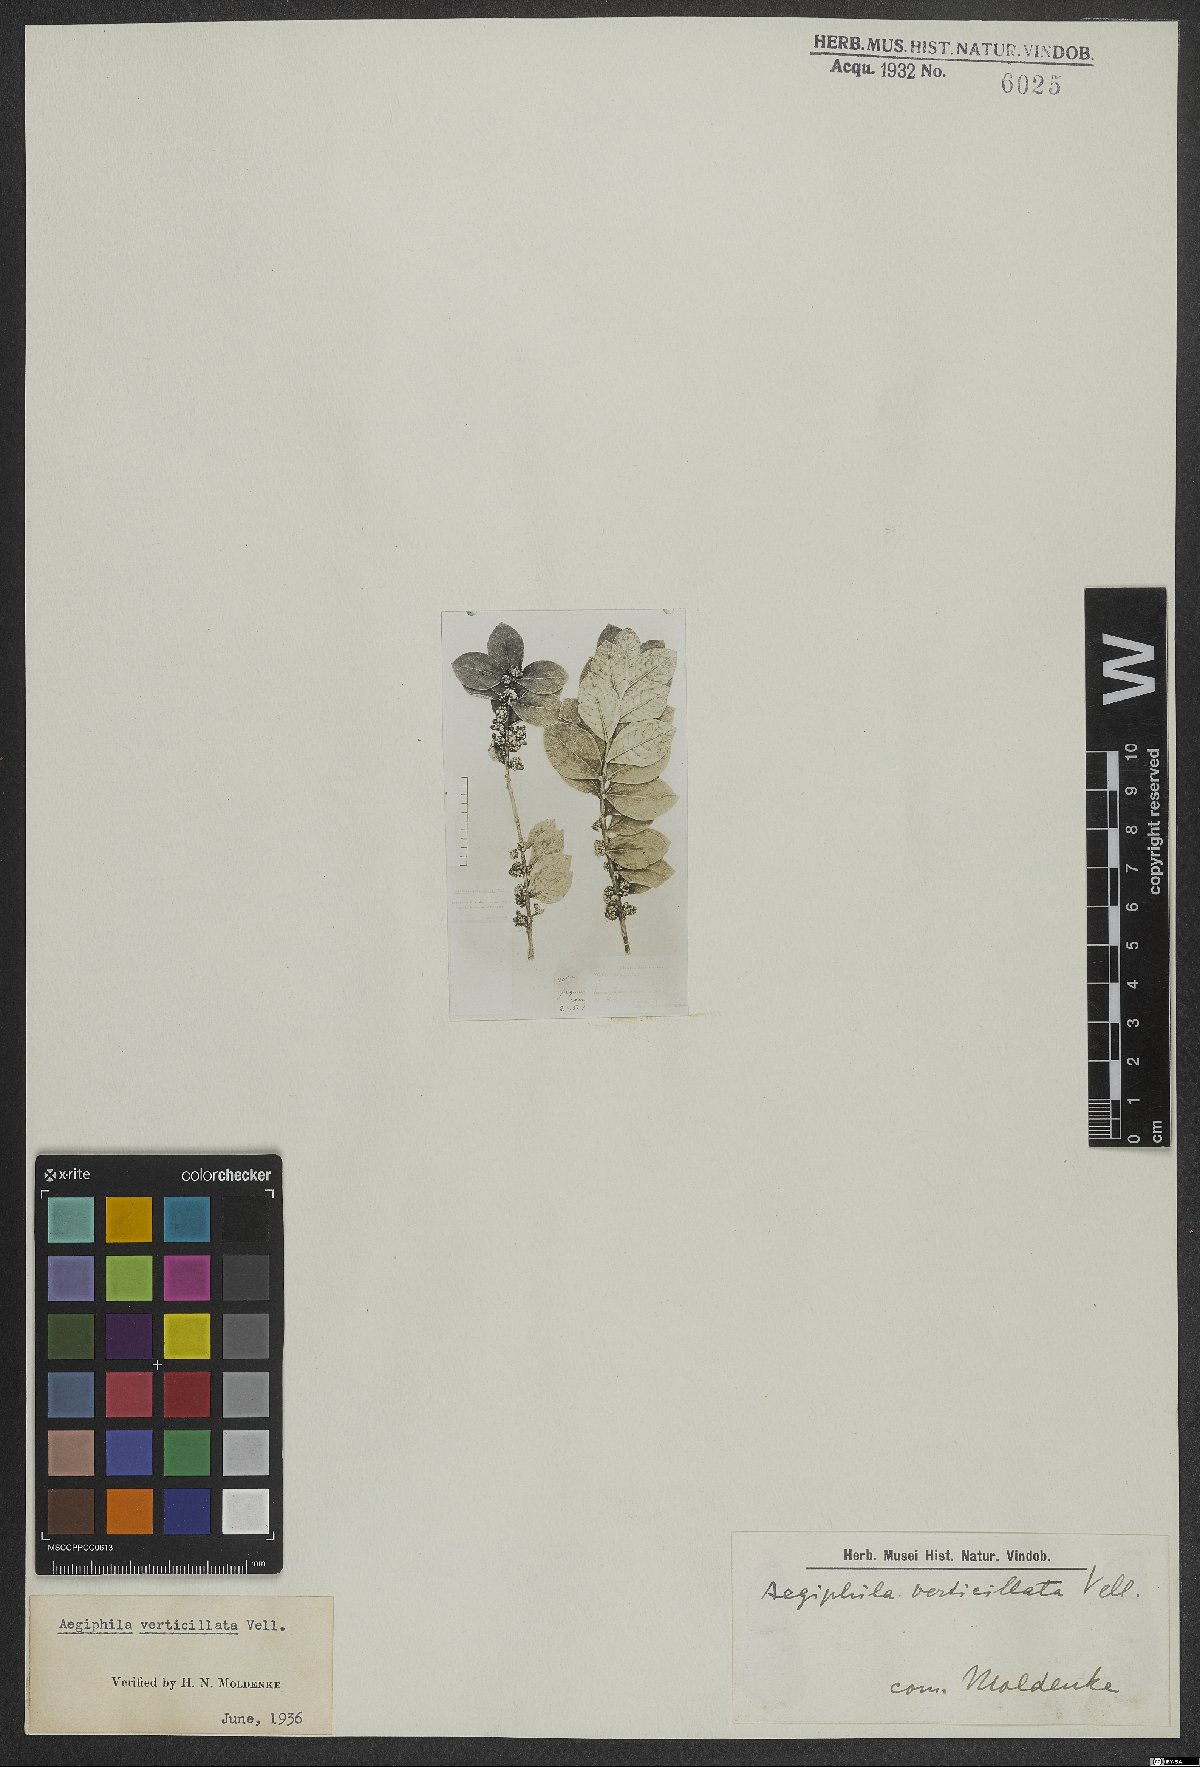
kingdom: Plantae
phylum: Tracheophyta
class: Magnoliopsida
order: Lamiales
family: Lamiaceae
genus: Aegiphila
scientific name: Aegiphila verticillata
